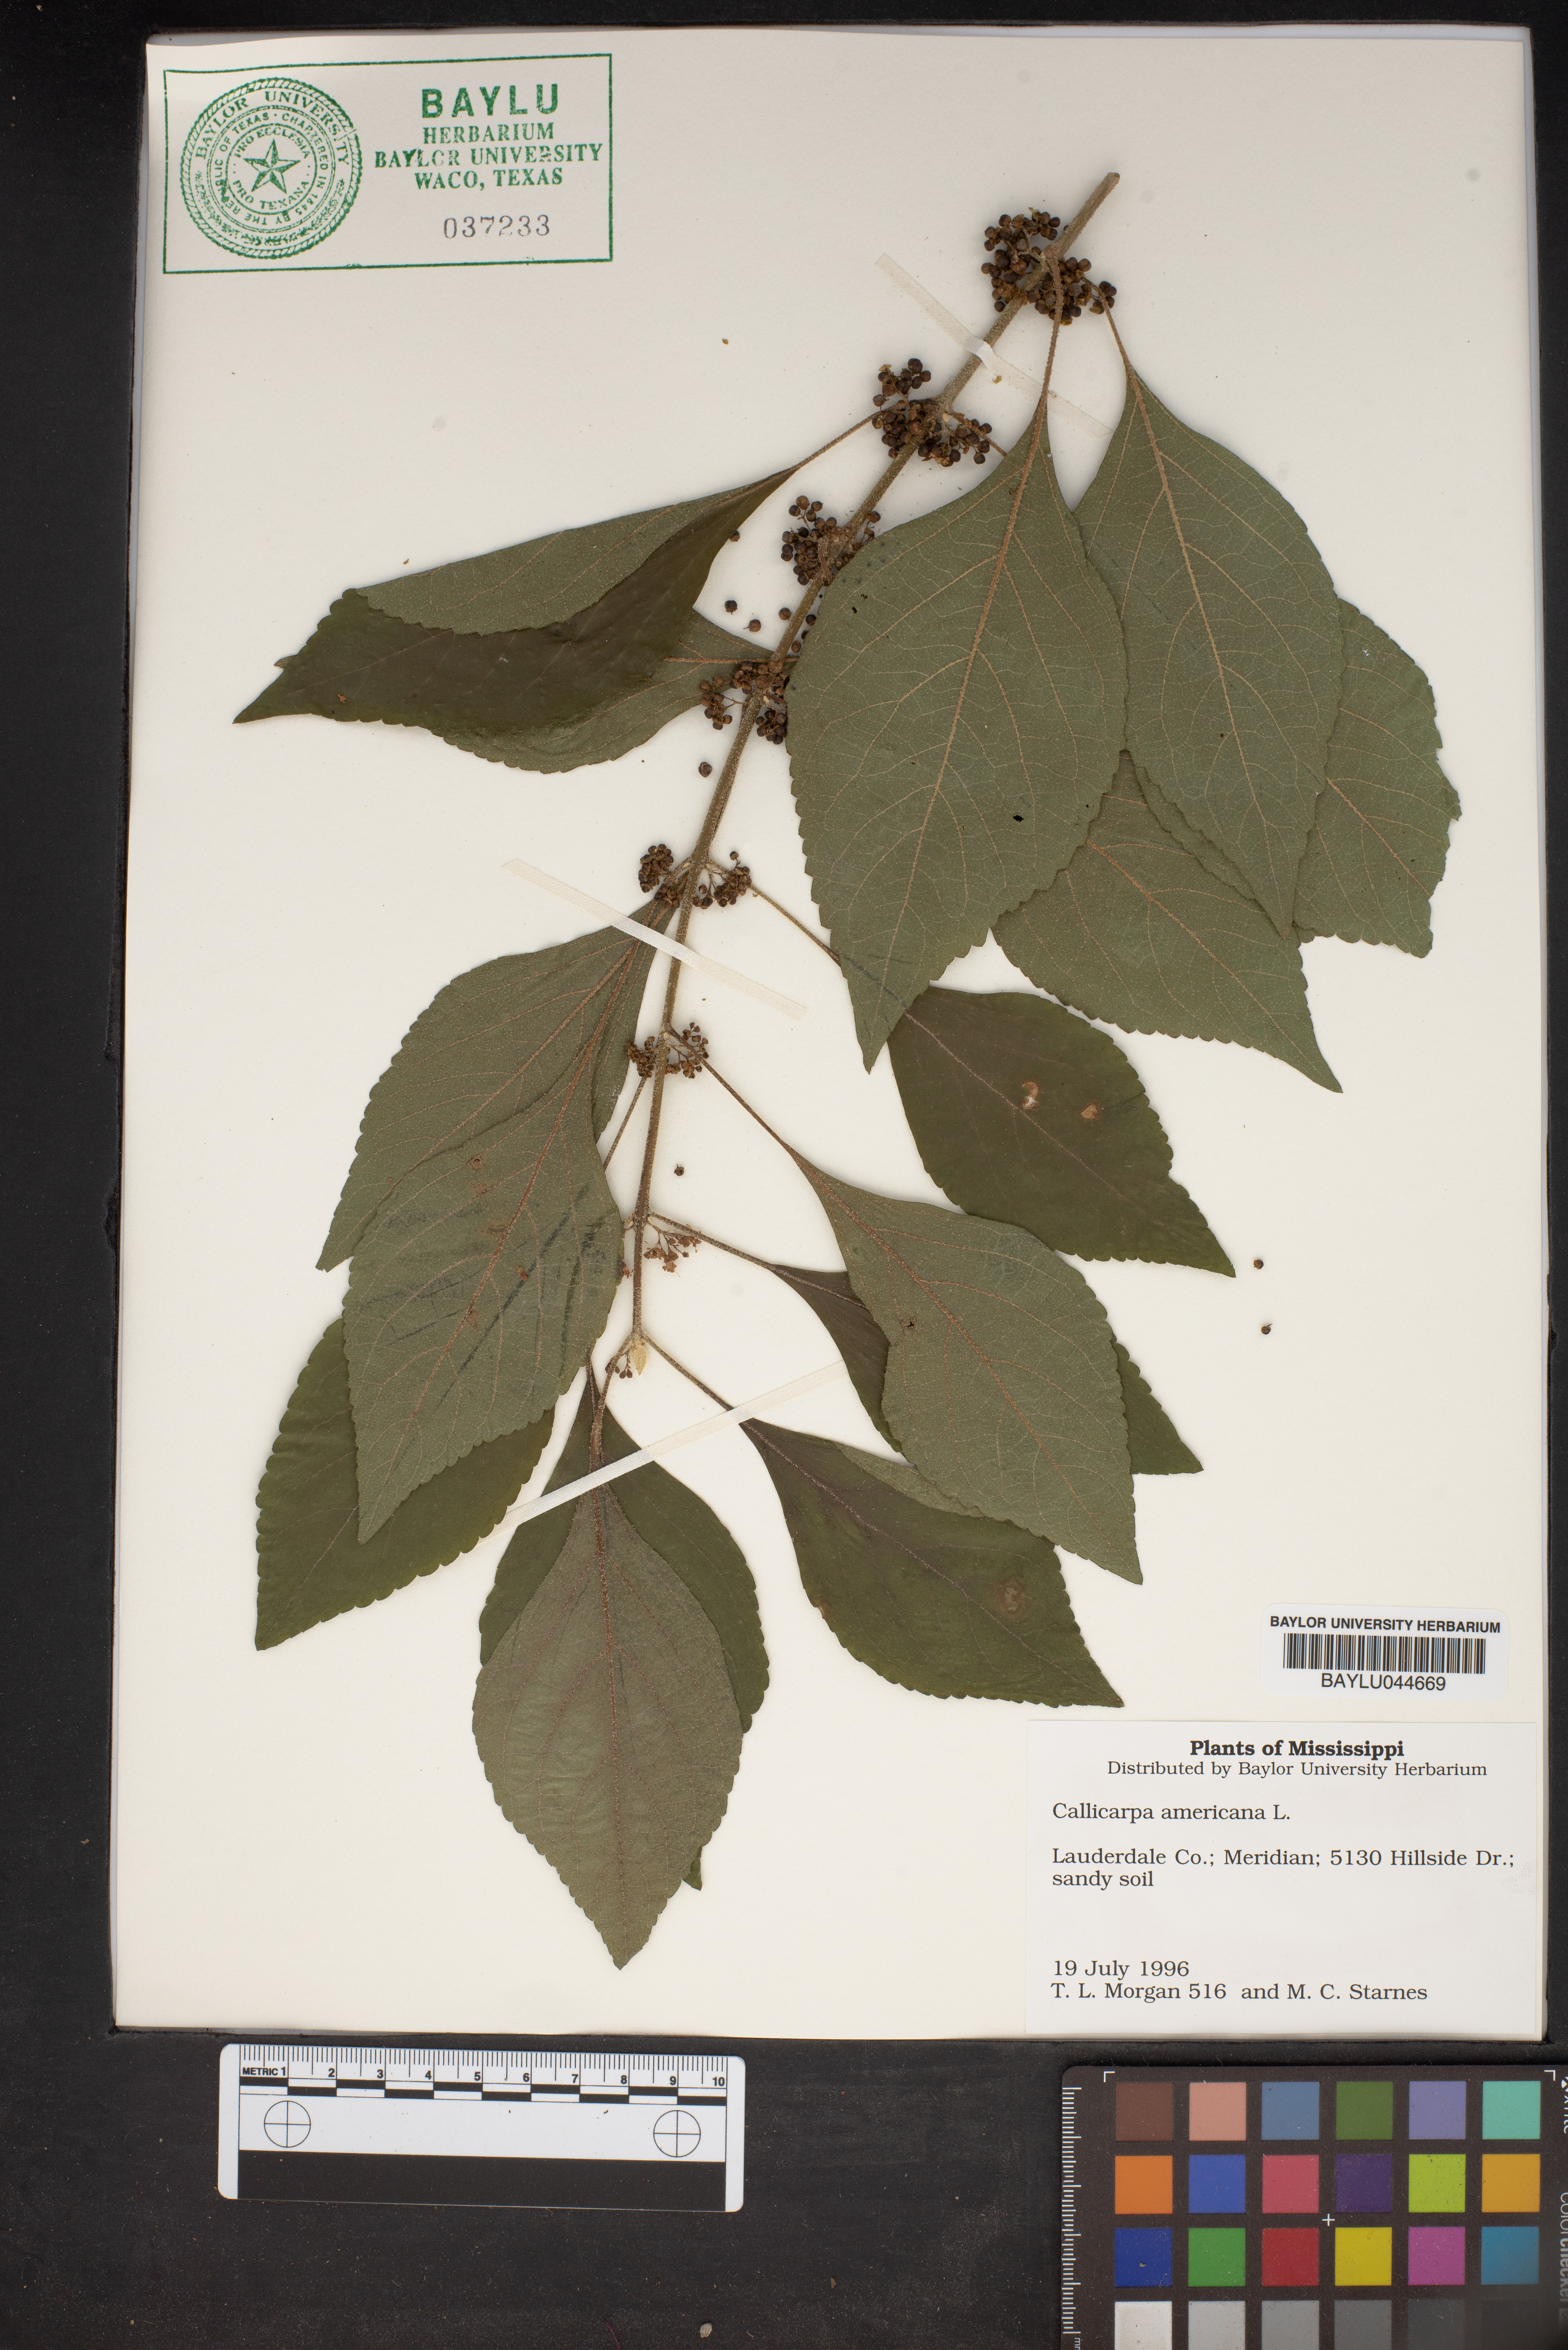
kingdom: Plantae
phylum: Tracheophyta
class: Magnoliopsida
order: Lamiales
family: Lamiaceae
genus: Callicarpa
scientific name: Callicarpa americana
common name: American beautyberry
